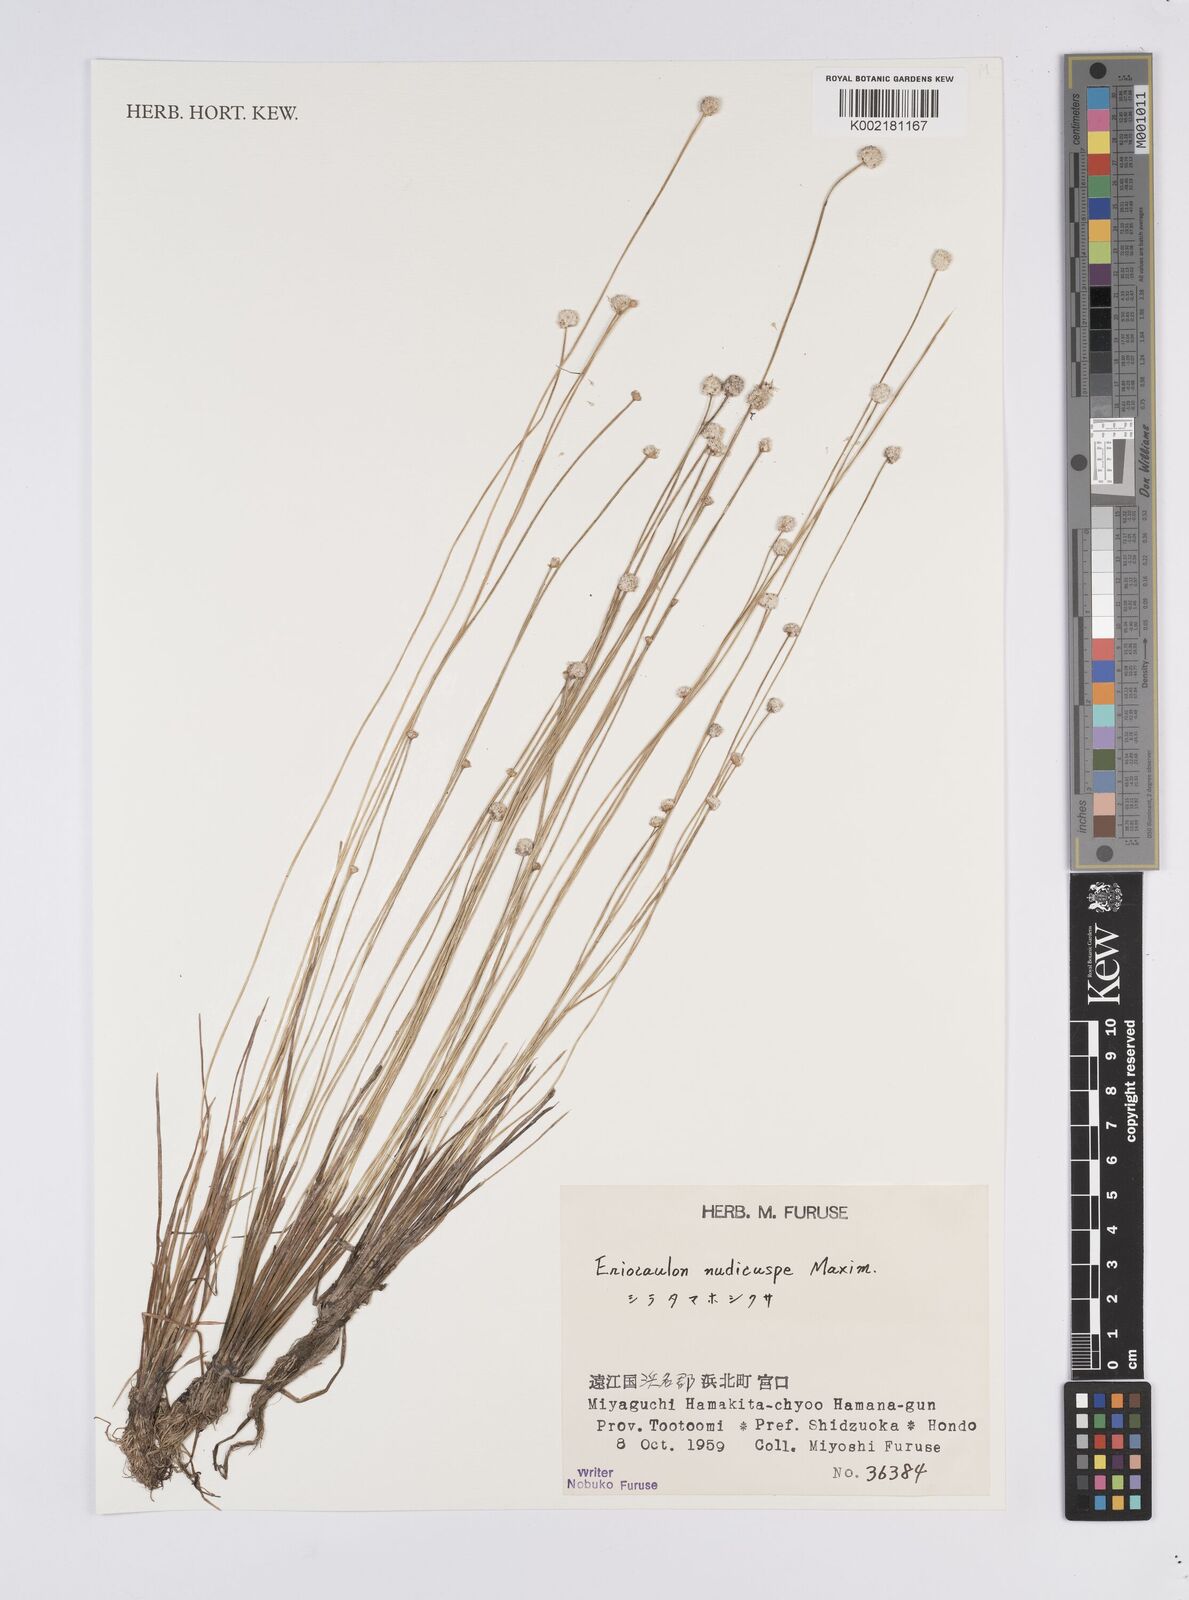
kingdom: Plantae
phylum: Tracheophyta
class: Liliopsida
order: Poales
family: Eriocaulaceae
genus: Eriocaulon
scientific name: Eriocaulon nudicuspe
